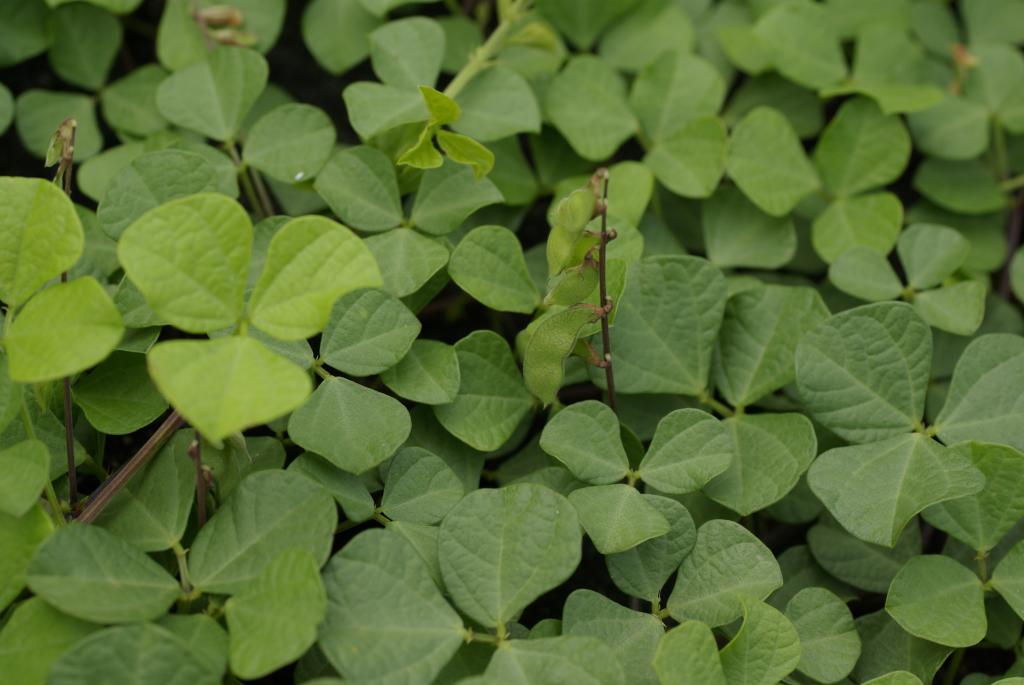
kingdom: Plantae
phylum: Tracheophyta
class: Magnoliopsida
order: Fabales
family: Fabaceae
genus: Rhynchosia
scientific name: Rhynchosia minima
